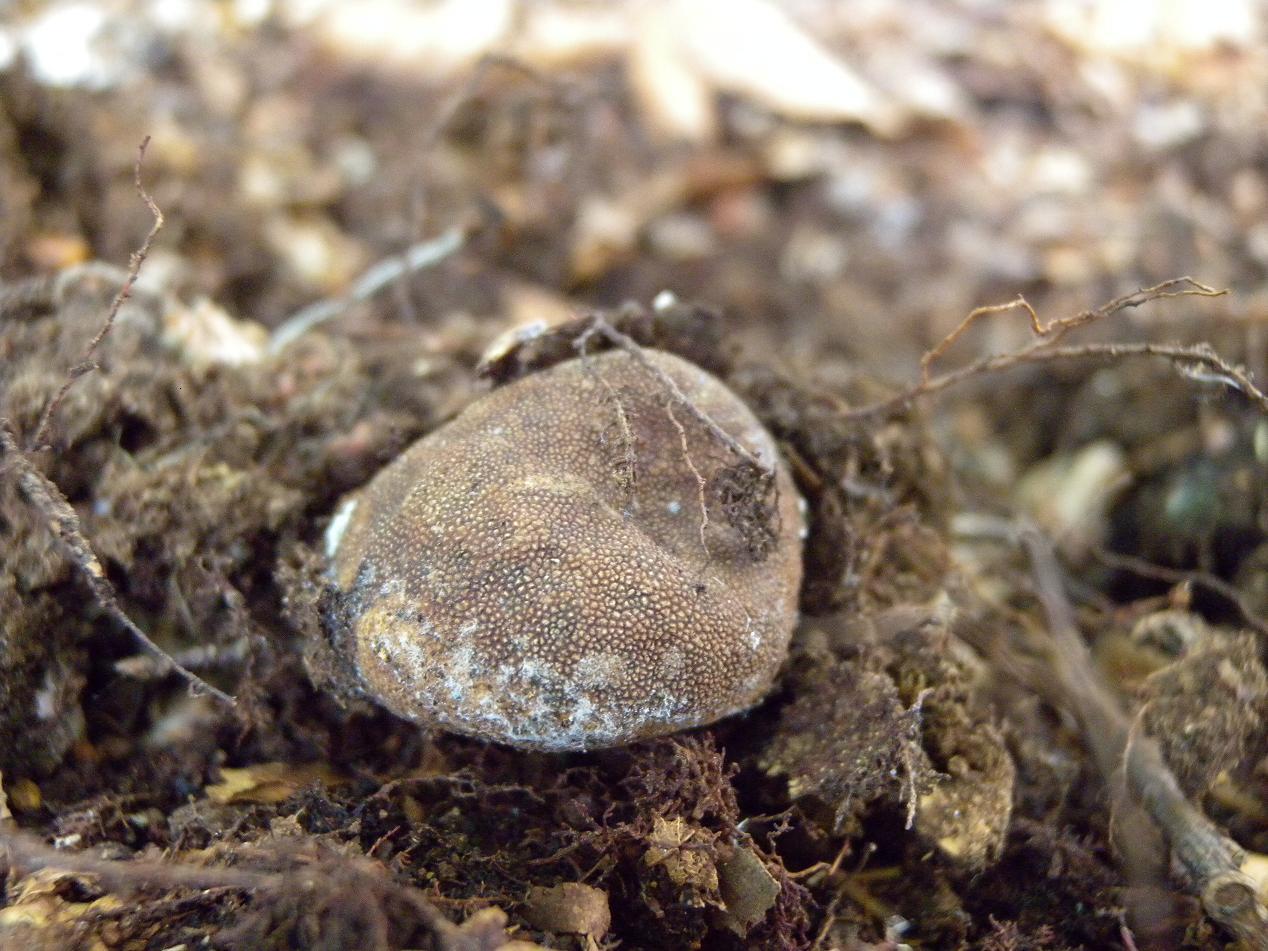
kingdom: Fungi
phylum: Ascomycota
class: Eurotiomycetes
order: Eurotiales
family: Elaphomycetaceae
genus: Elaphomyces
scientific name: Elaphomyces granulatus
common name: grynet hjortetrøffel
